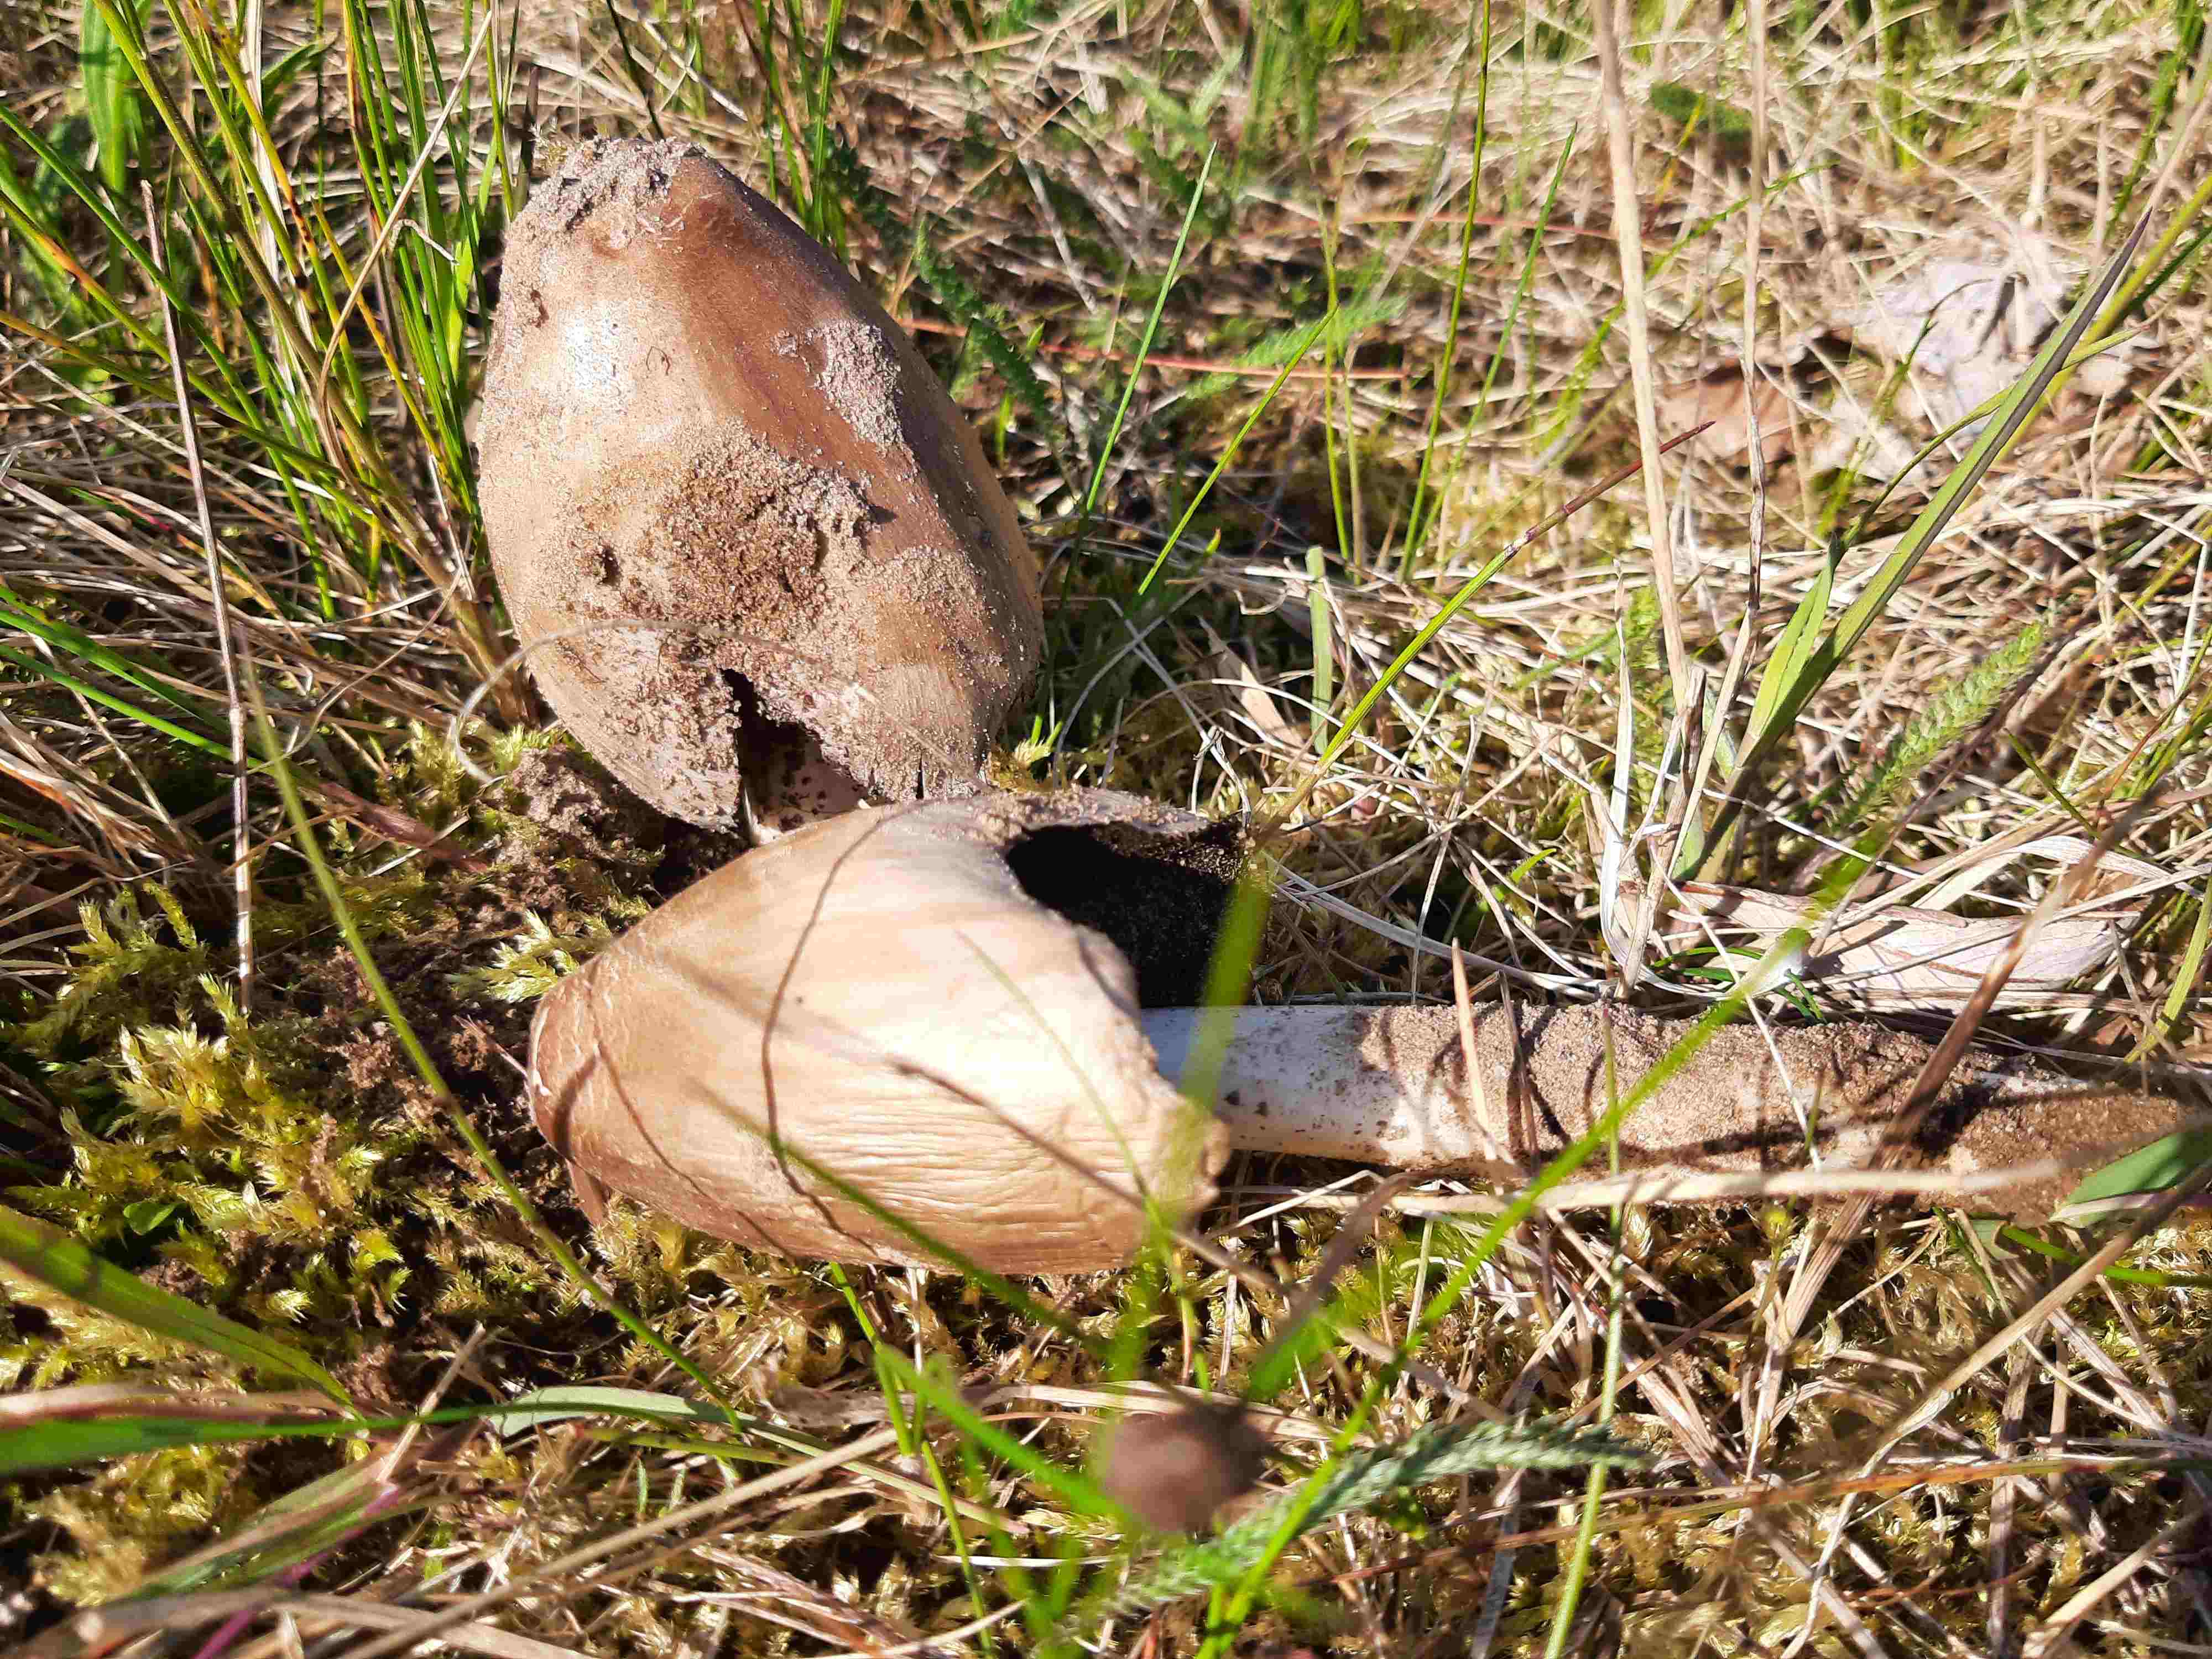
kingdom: Fungi
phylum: Basidiomycota
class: Agaricomycetes
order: Agaricales
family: Psathyrellaceae
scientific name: Psathyrellaceae
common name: mørkhatfamilien
